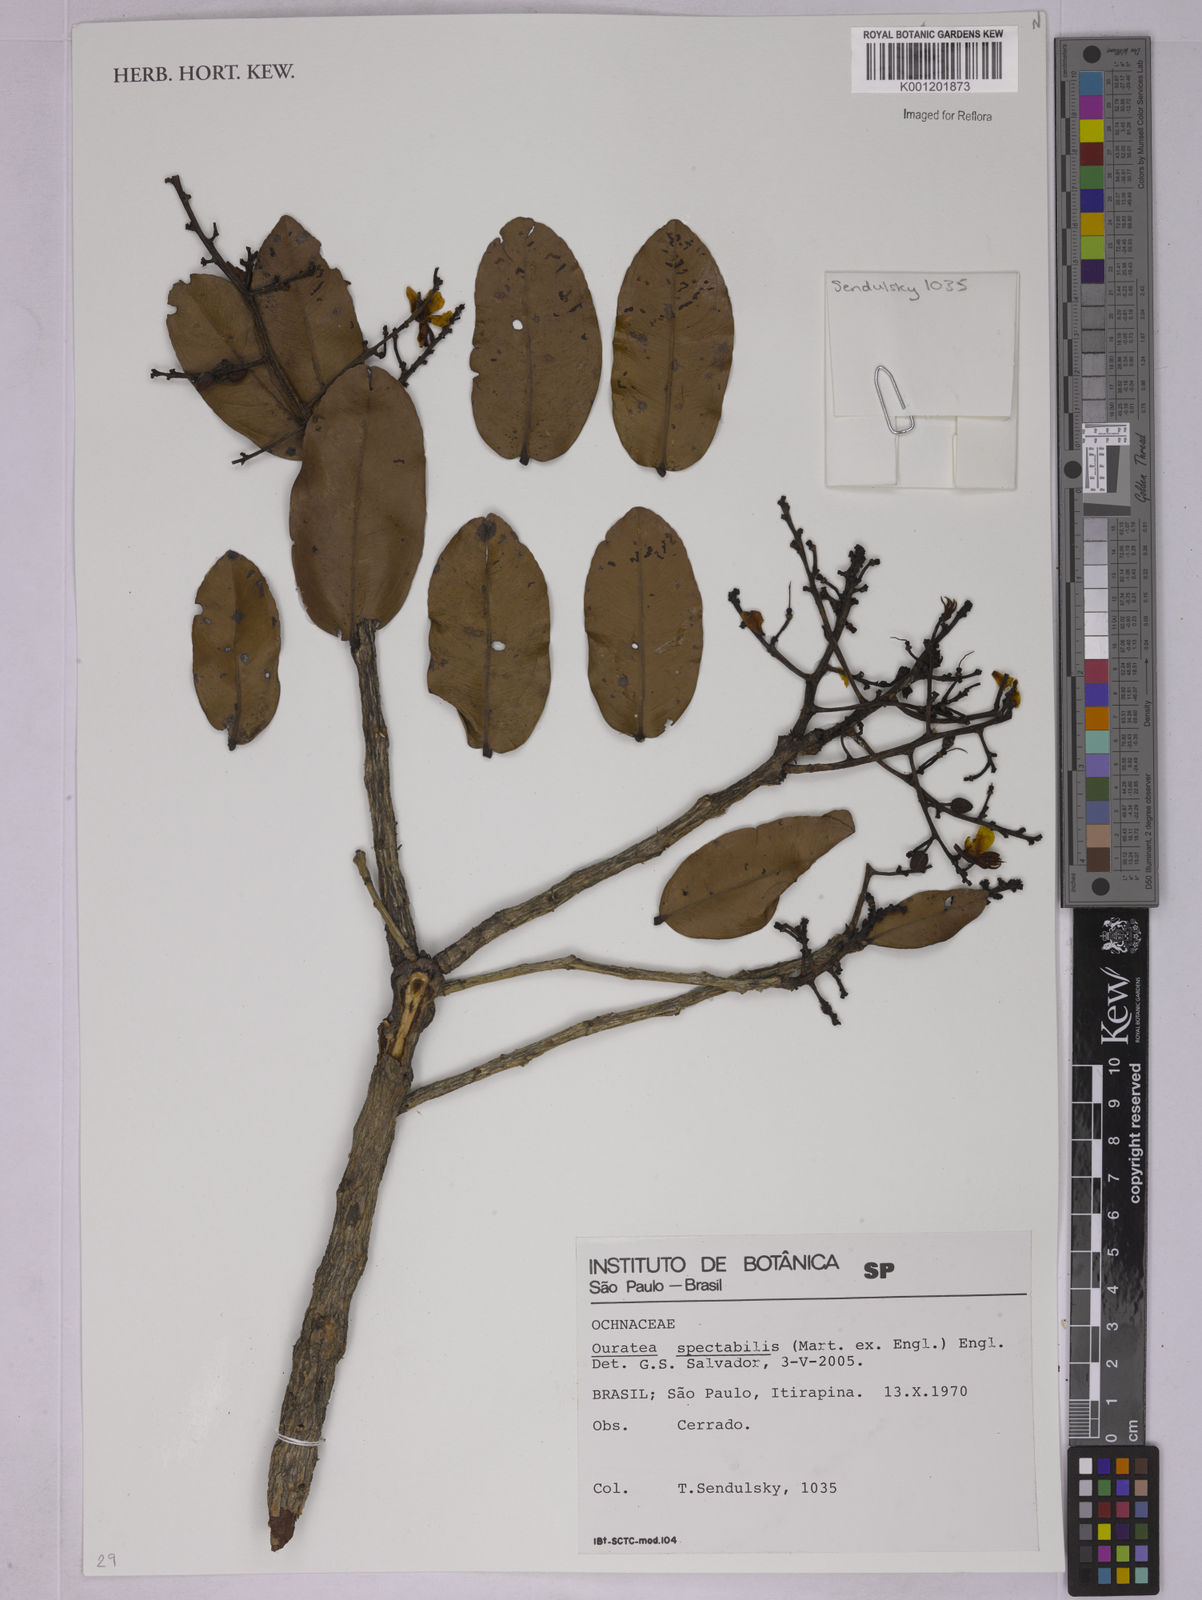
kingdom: Plantae
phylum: Tracheophyta
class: Magnoliopsida
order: Malpighiales
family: Ochnaceae
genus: Ouratea
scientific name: Ouratea spectabilis
